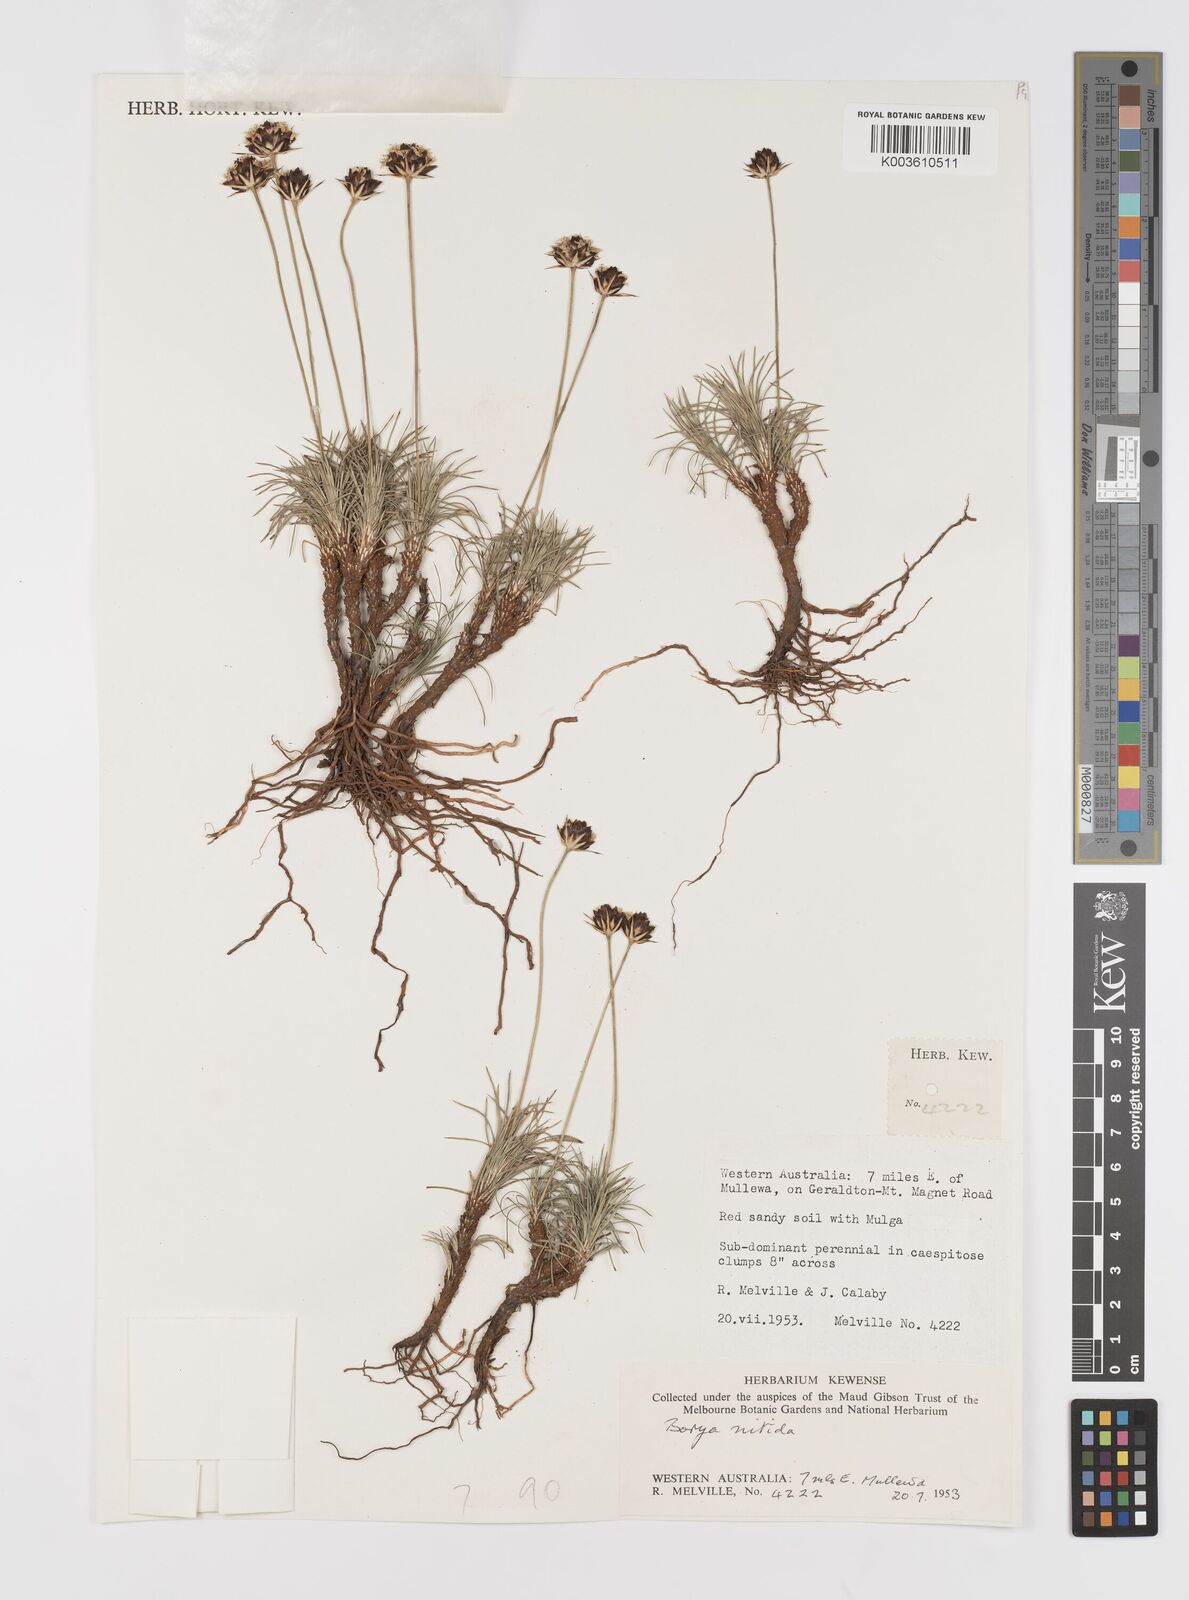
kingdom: Plantae
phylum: Tracheophyta
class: Liliopsida
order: Asparagales
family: Boryaceae
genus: Borya
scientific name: Borya nitida
